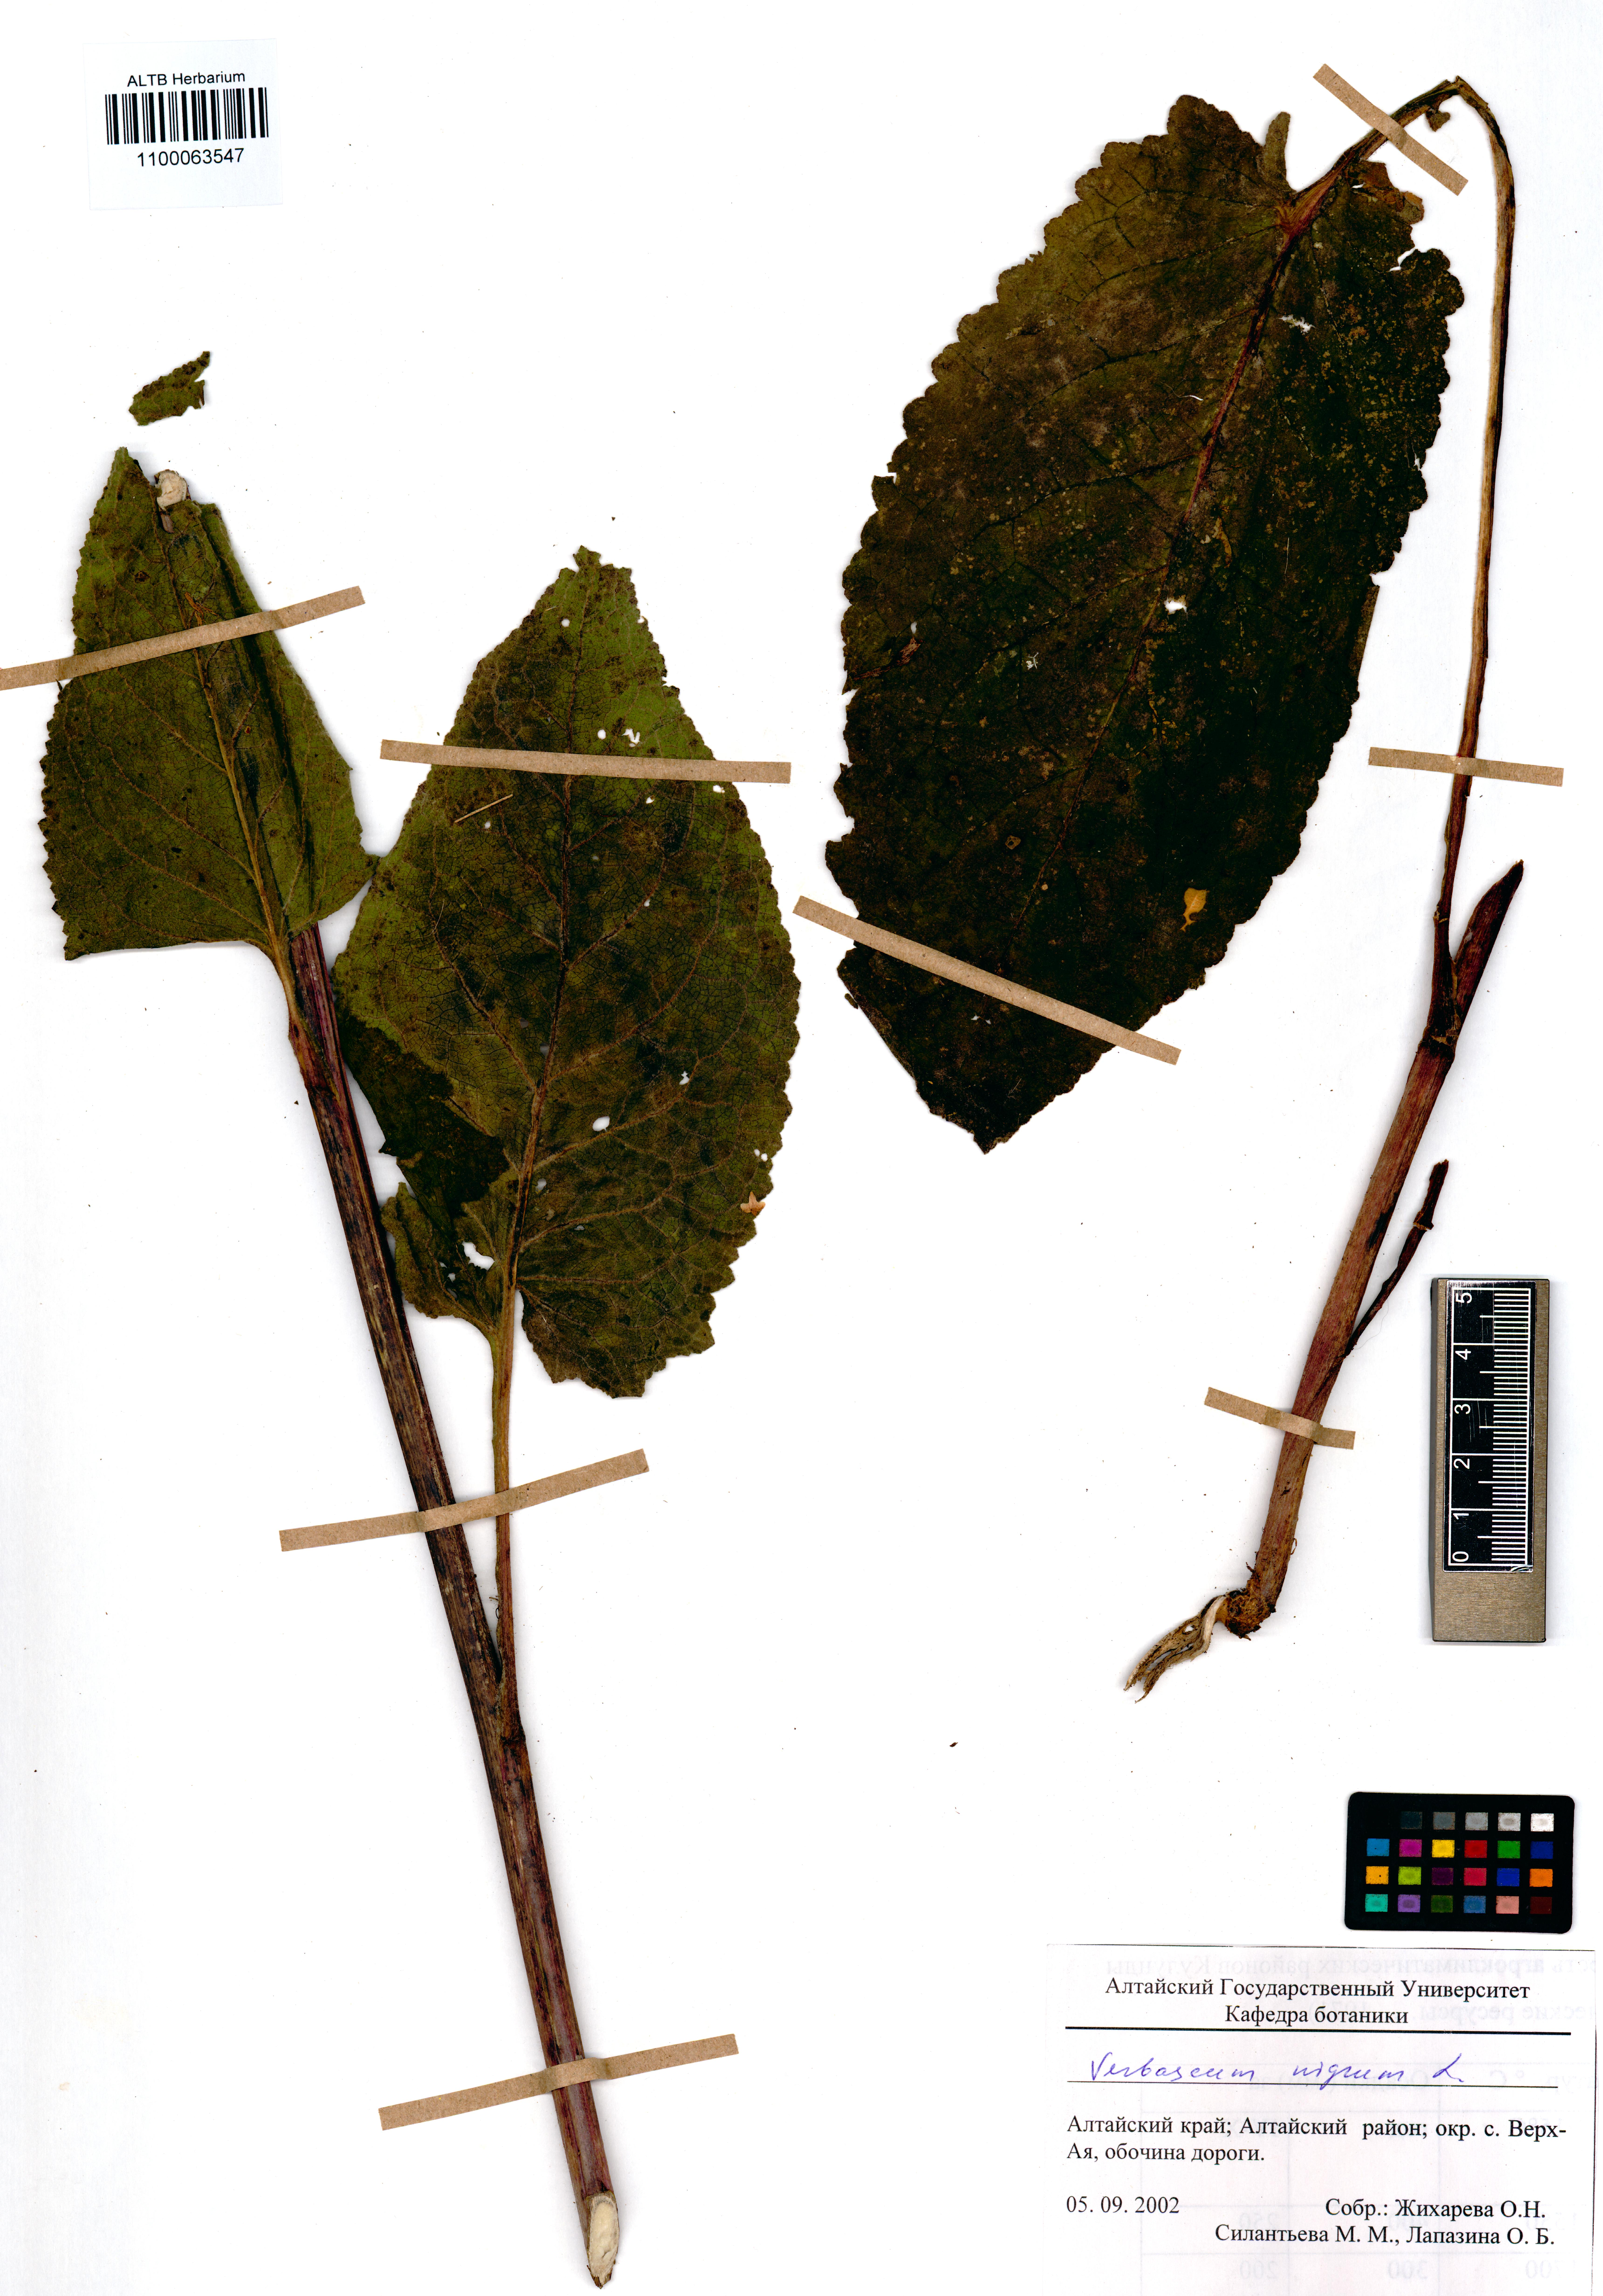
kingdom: Plantae
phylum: Tracheophyta
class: Magnoliopsida
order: Lamiales
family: Scrophulariaceae
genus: Verbascum
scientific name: Verbascum nigrum
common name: Dark mullein
